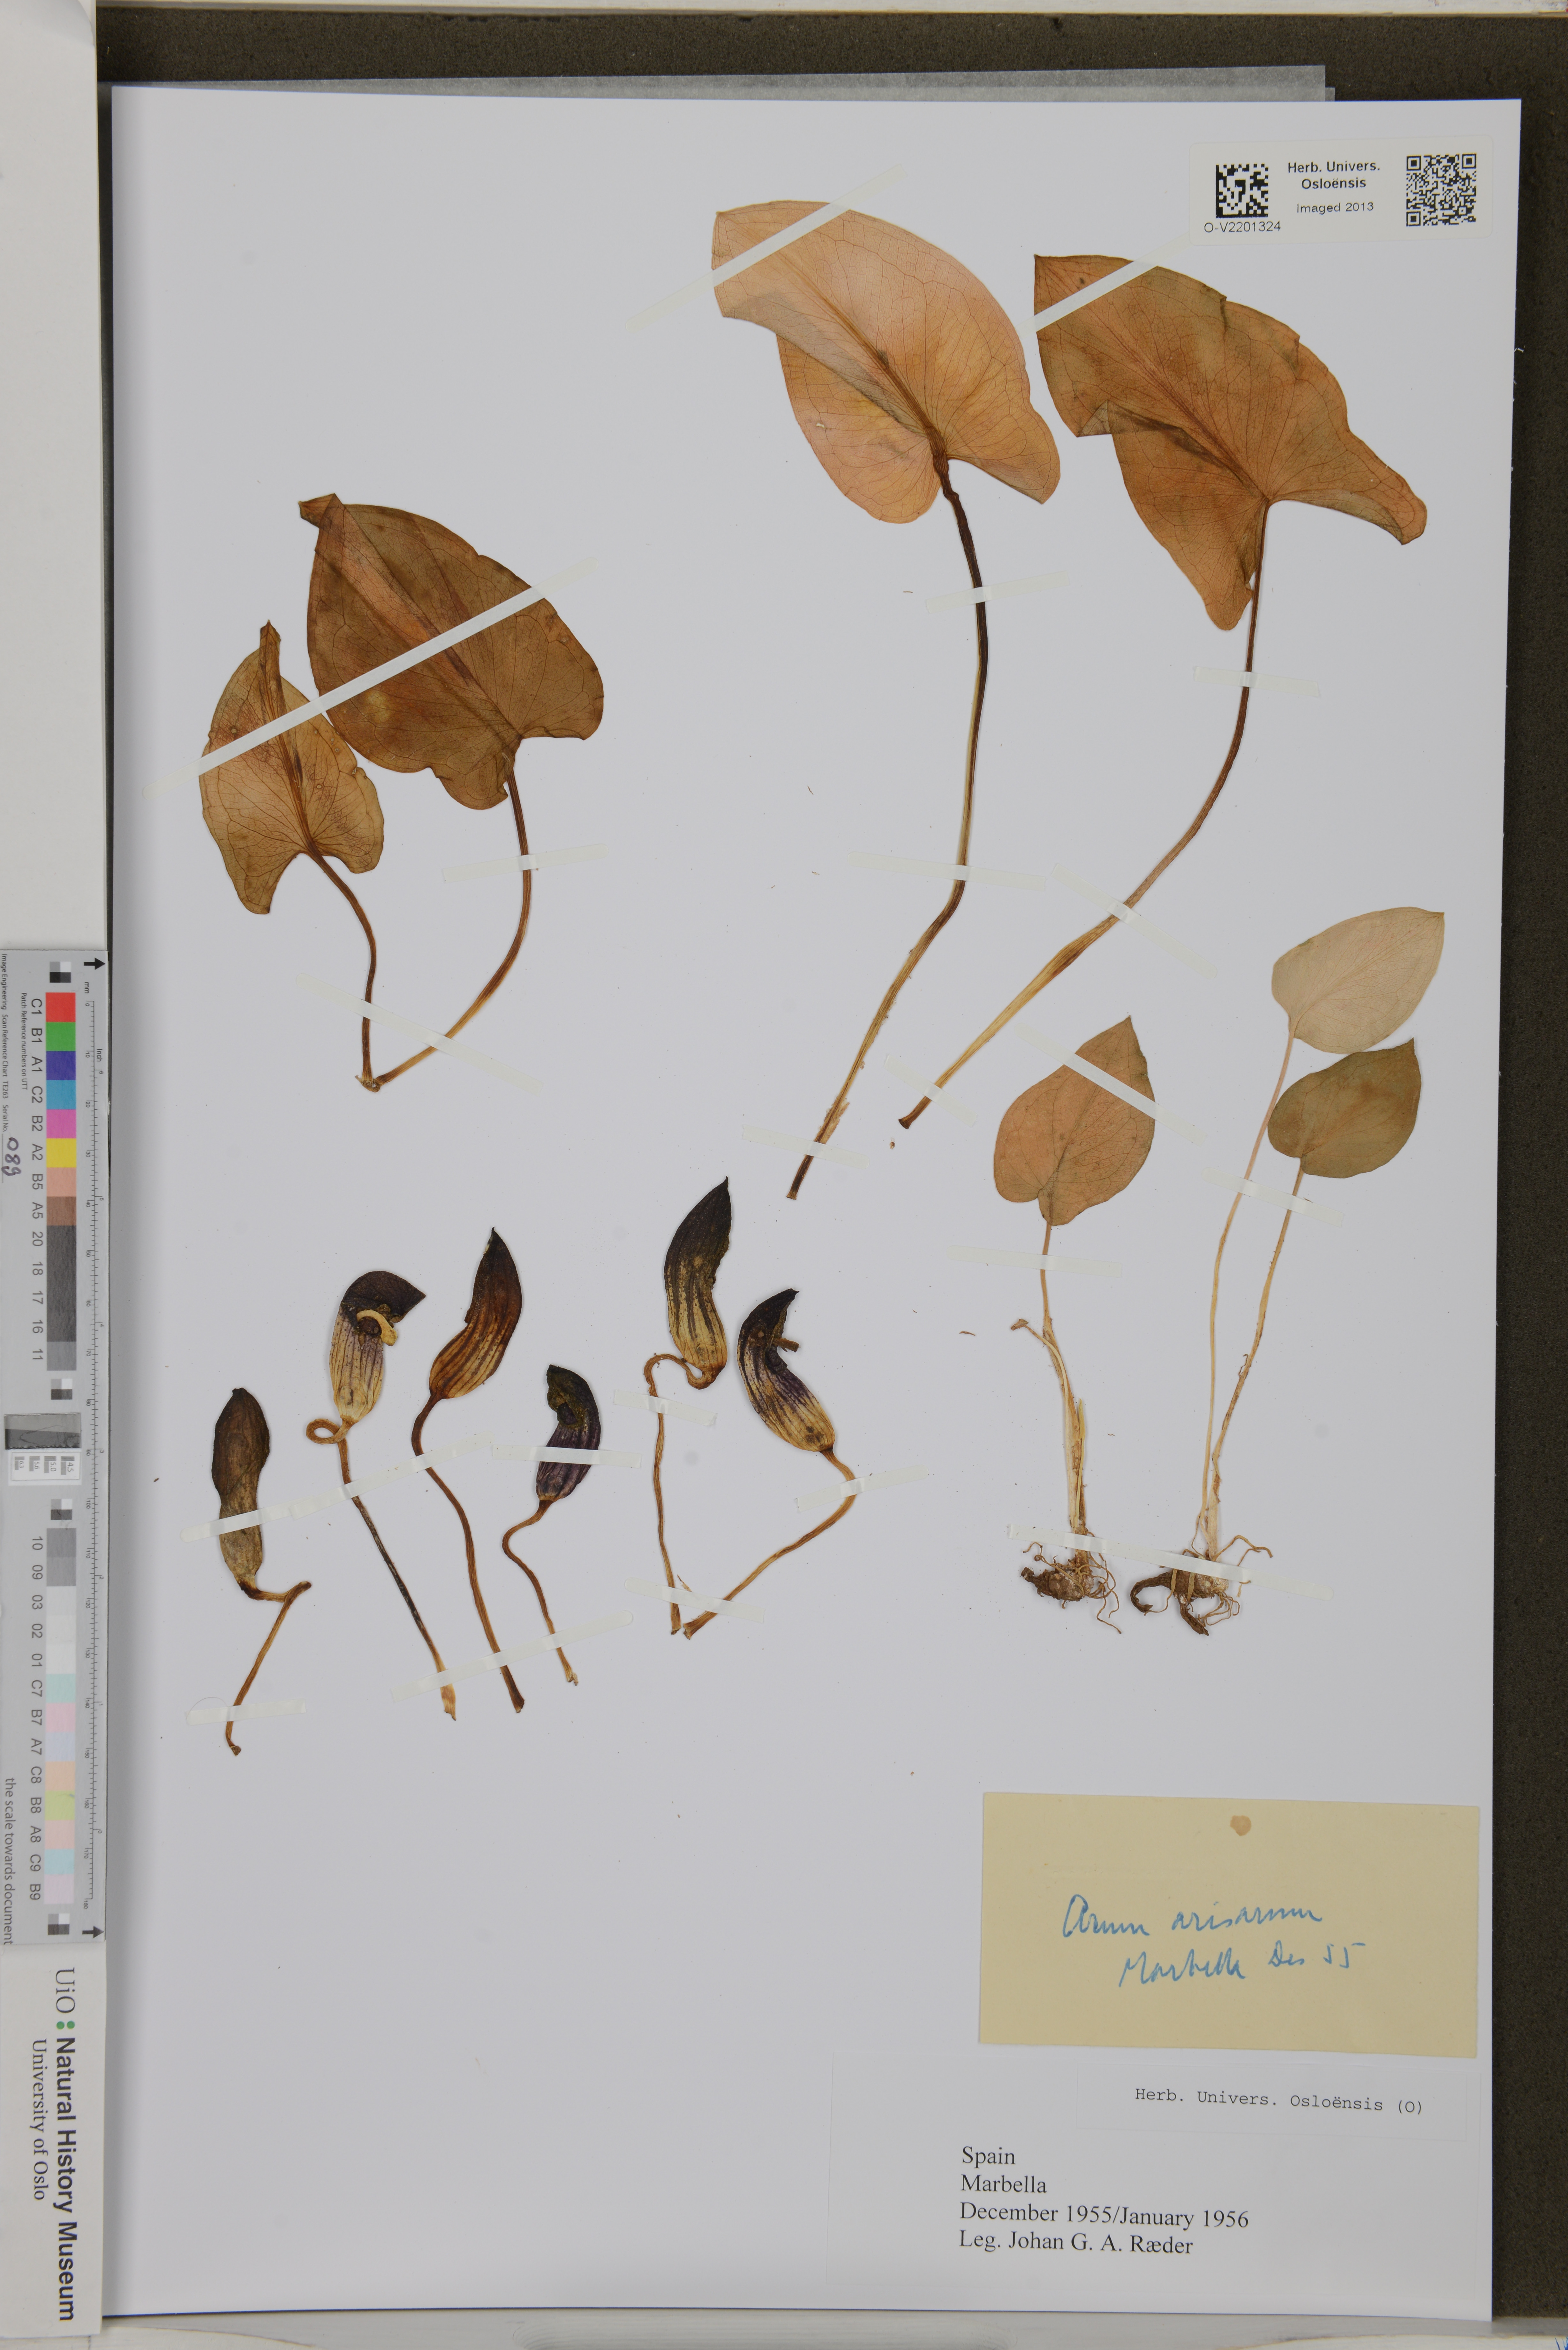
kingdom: Plantae
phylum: Tracheophyta
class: Liliopsida
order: Alismatales
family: Araceae
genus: Arisarum
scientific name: Arisarum vulgare
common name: Common arisarum
